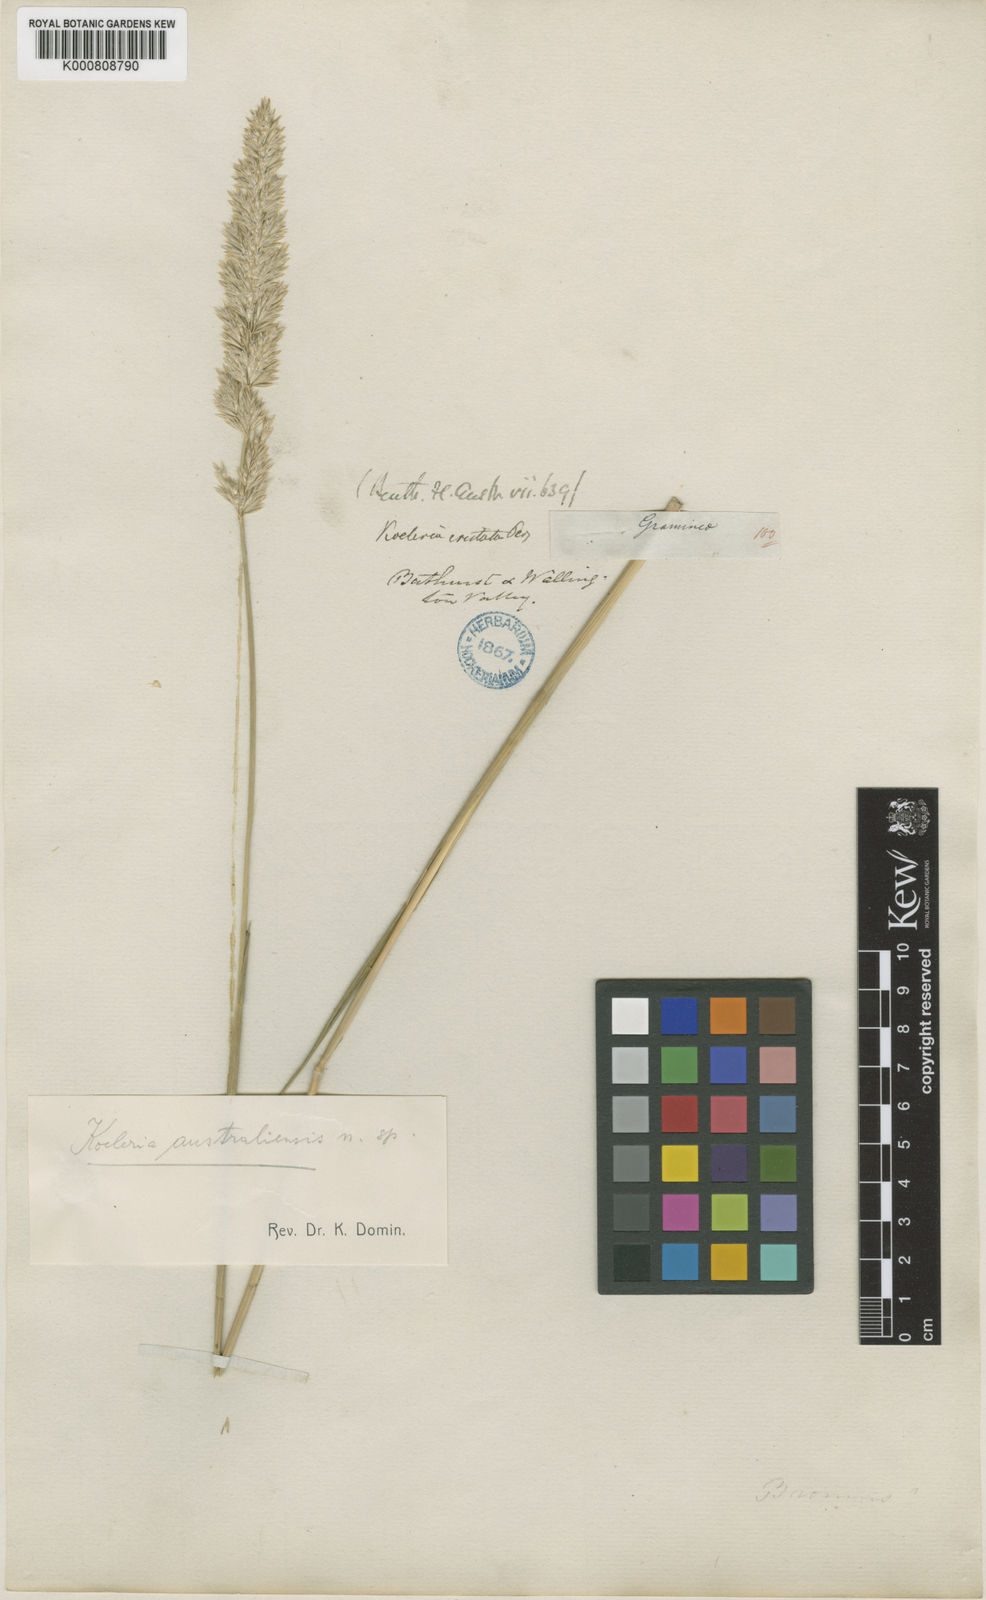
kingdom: Plantae
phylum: Tracheophyta
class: Liliopsida
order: Poales
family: Poaceae
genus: Koeleria
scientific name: Koeleria macrantha
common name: Crested hair-grass
